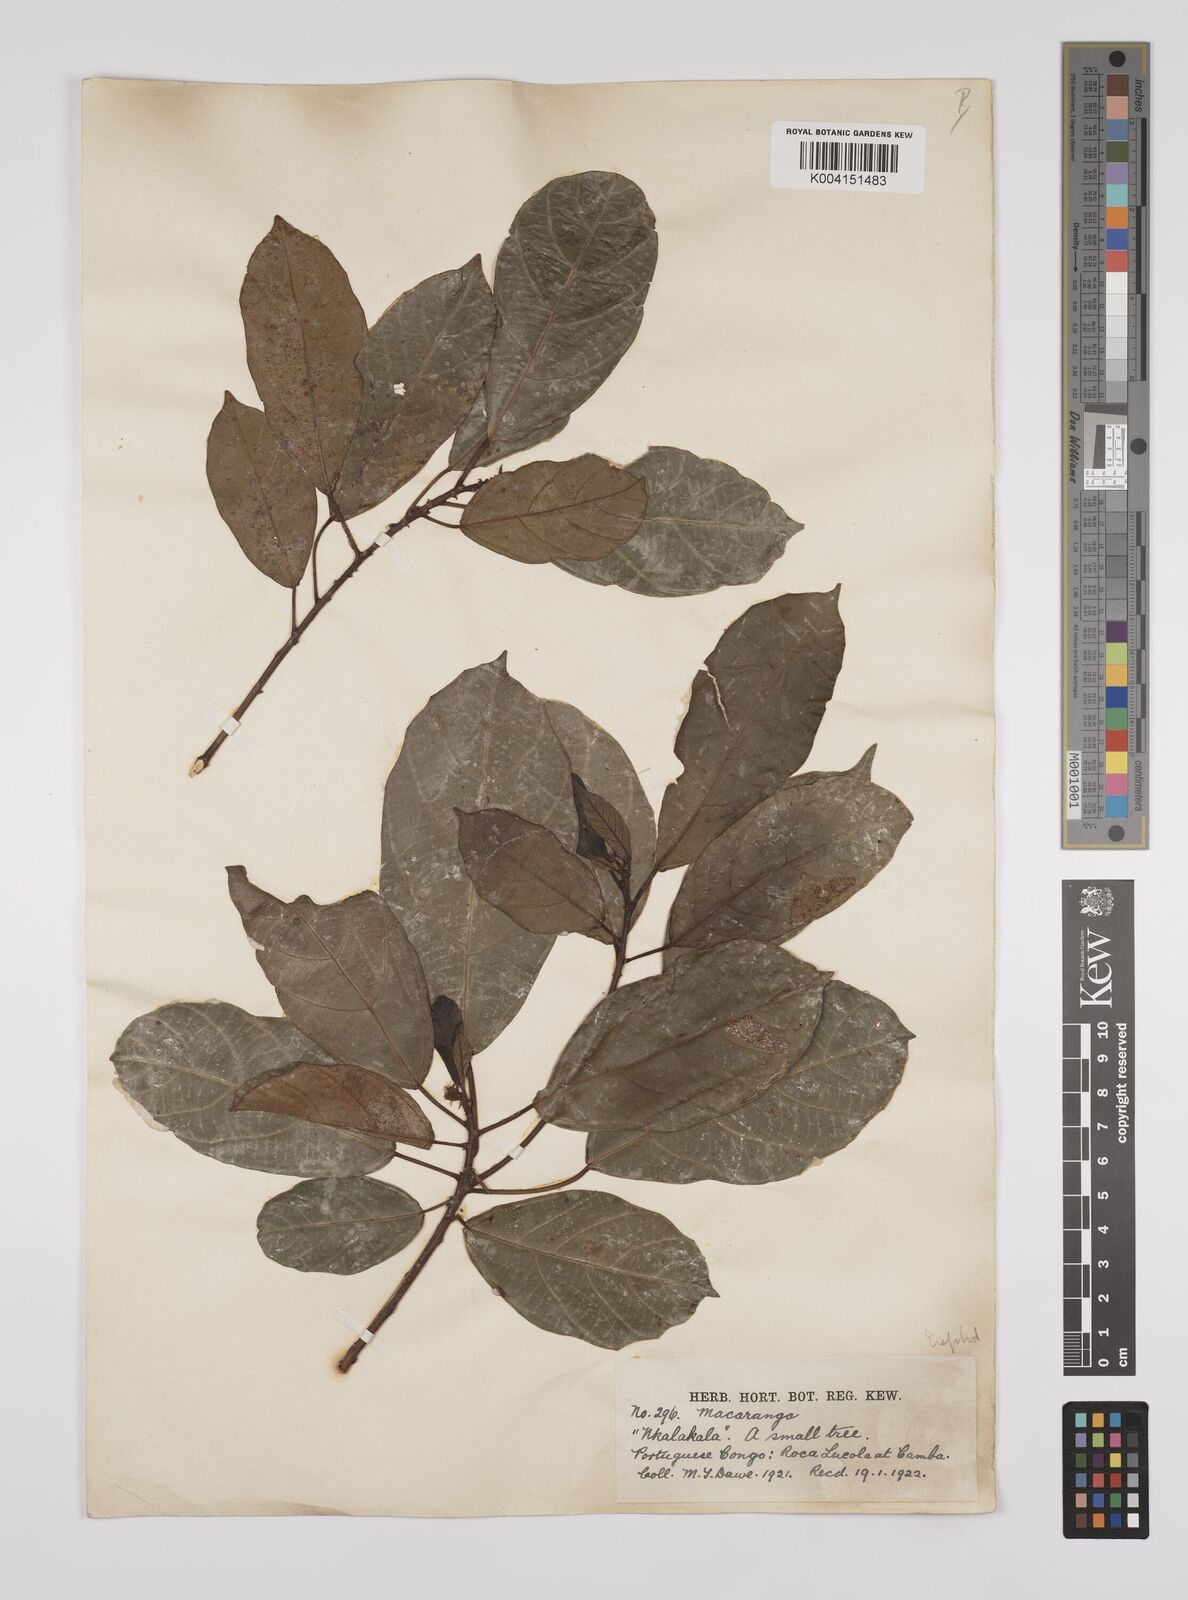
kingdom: Plantae
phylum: Tracheophyta
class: Magnoliopsida
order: Malpighiales
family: Euphorbiaceae
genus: Macaranga
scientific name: Macaranga barteri
